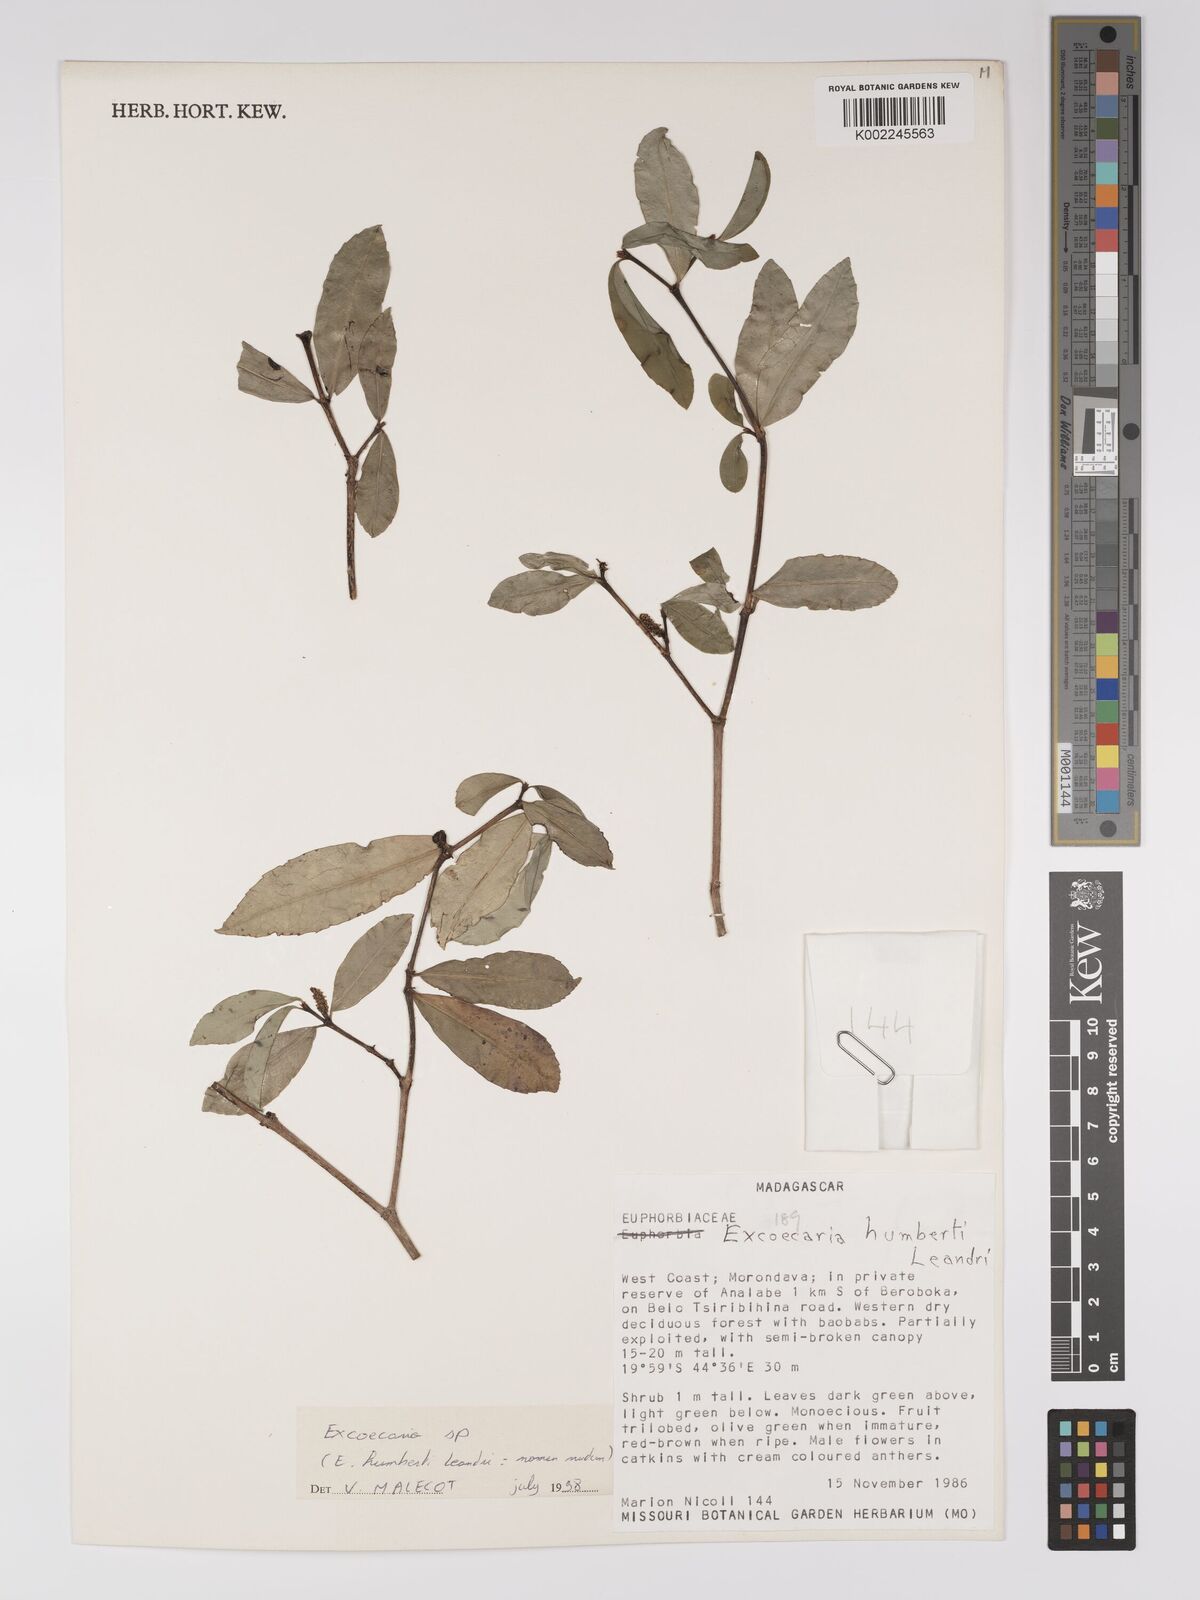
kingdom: Plantae
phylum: Tracheophyta
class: Magnoliopsida
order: Malpighiales
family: Euphorbiaceae
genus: Excoecaria
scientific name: Excoecaria
